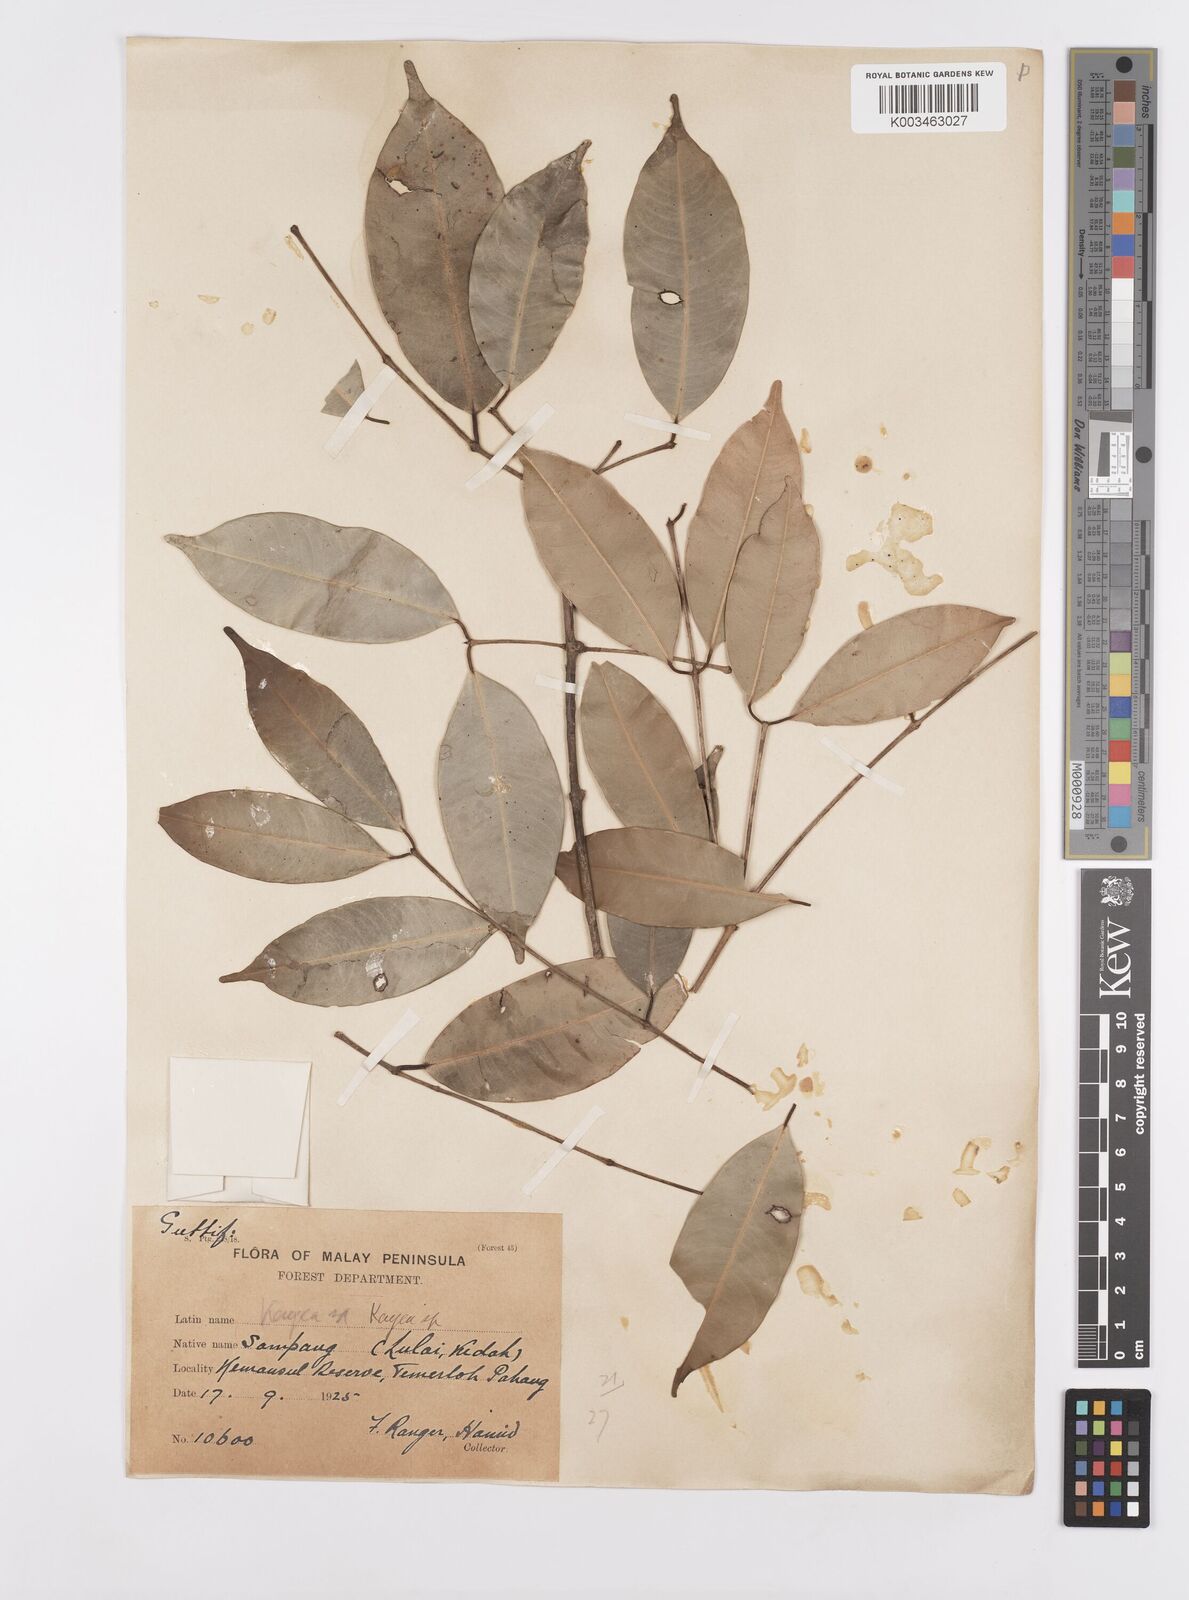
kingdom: Plantae
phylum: Tracheophyta
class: Magnoliopsida
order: Malpighiales
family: Calophyllaceae
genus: Kayea
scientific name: Kayea
